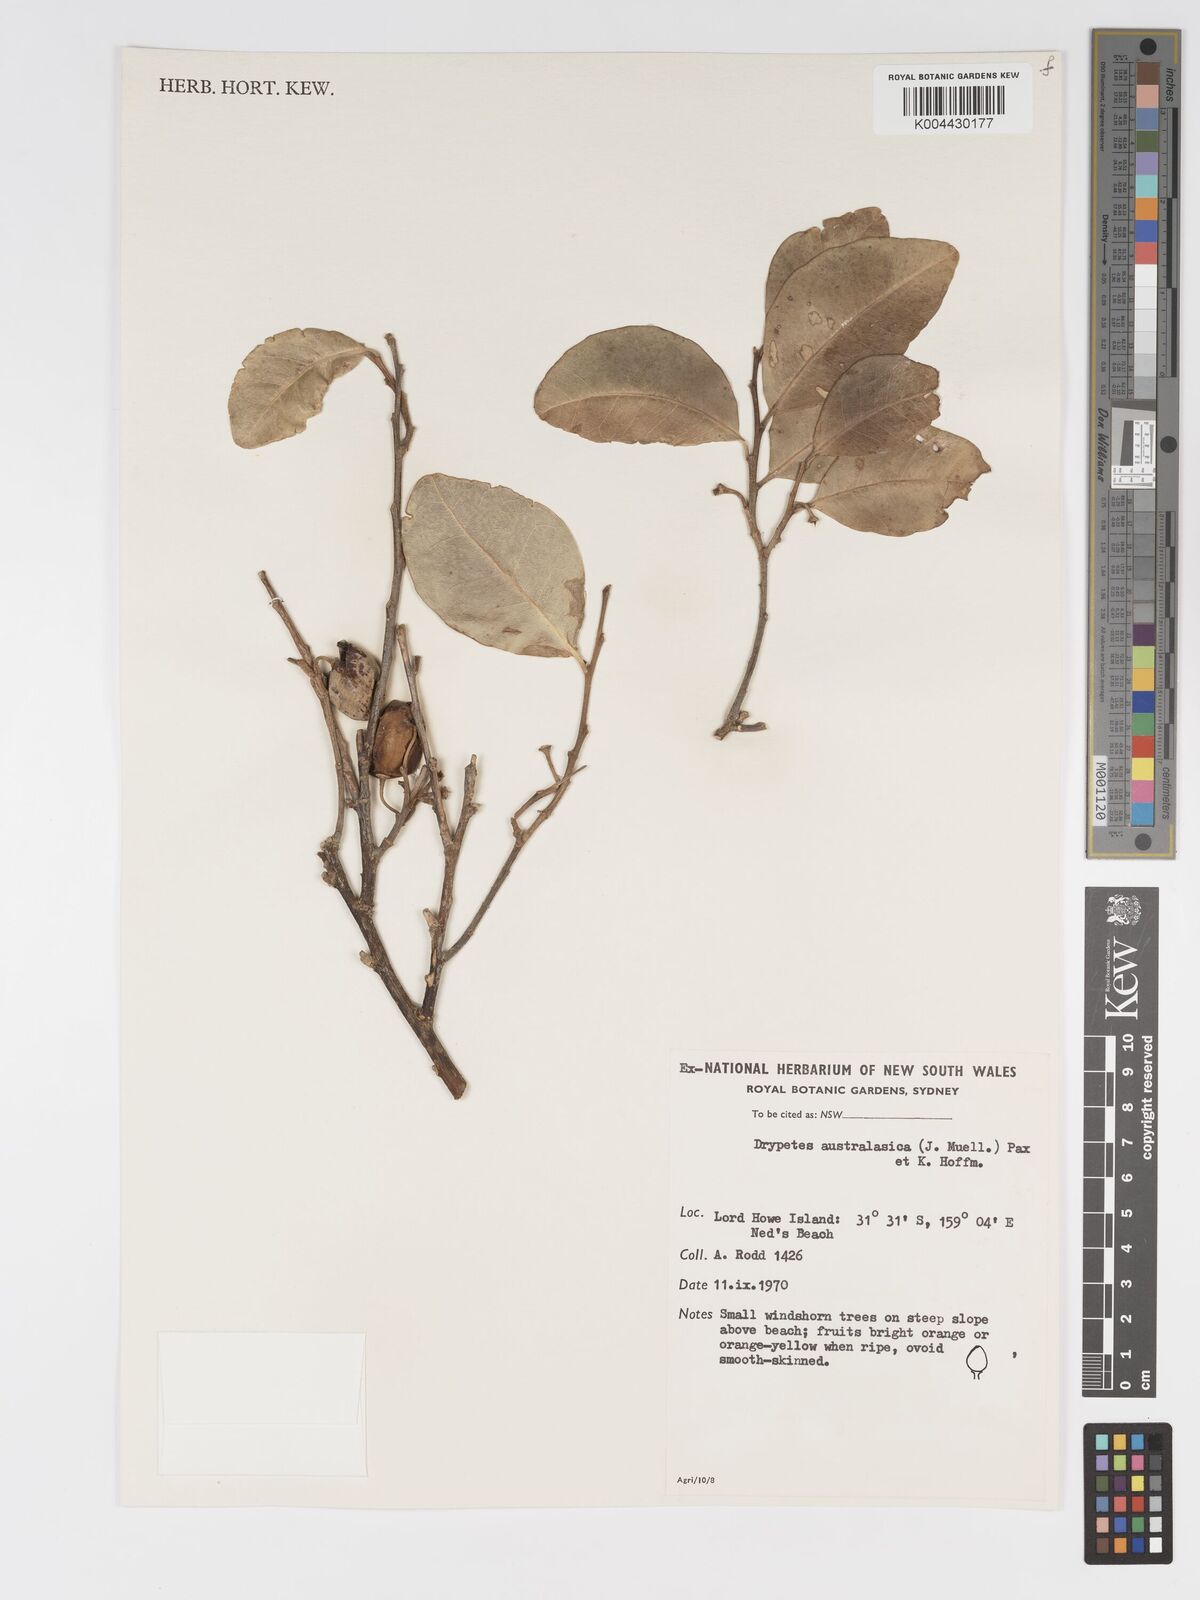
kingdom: Plantae
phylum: Tracheophyta
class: Magnoliopsida
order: Malpighiales
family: Putranjivaceae
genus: Drypetes
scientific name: Drypetes deplanchei
